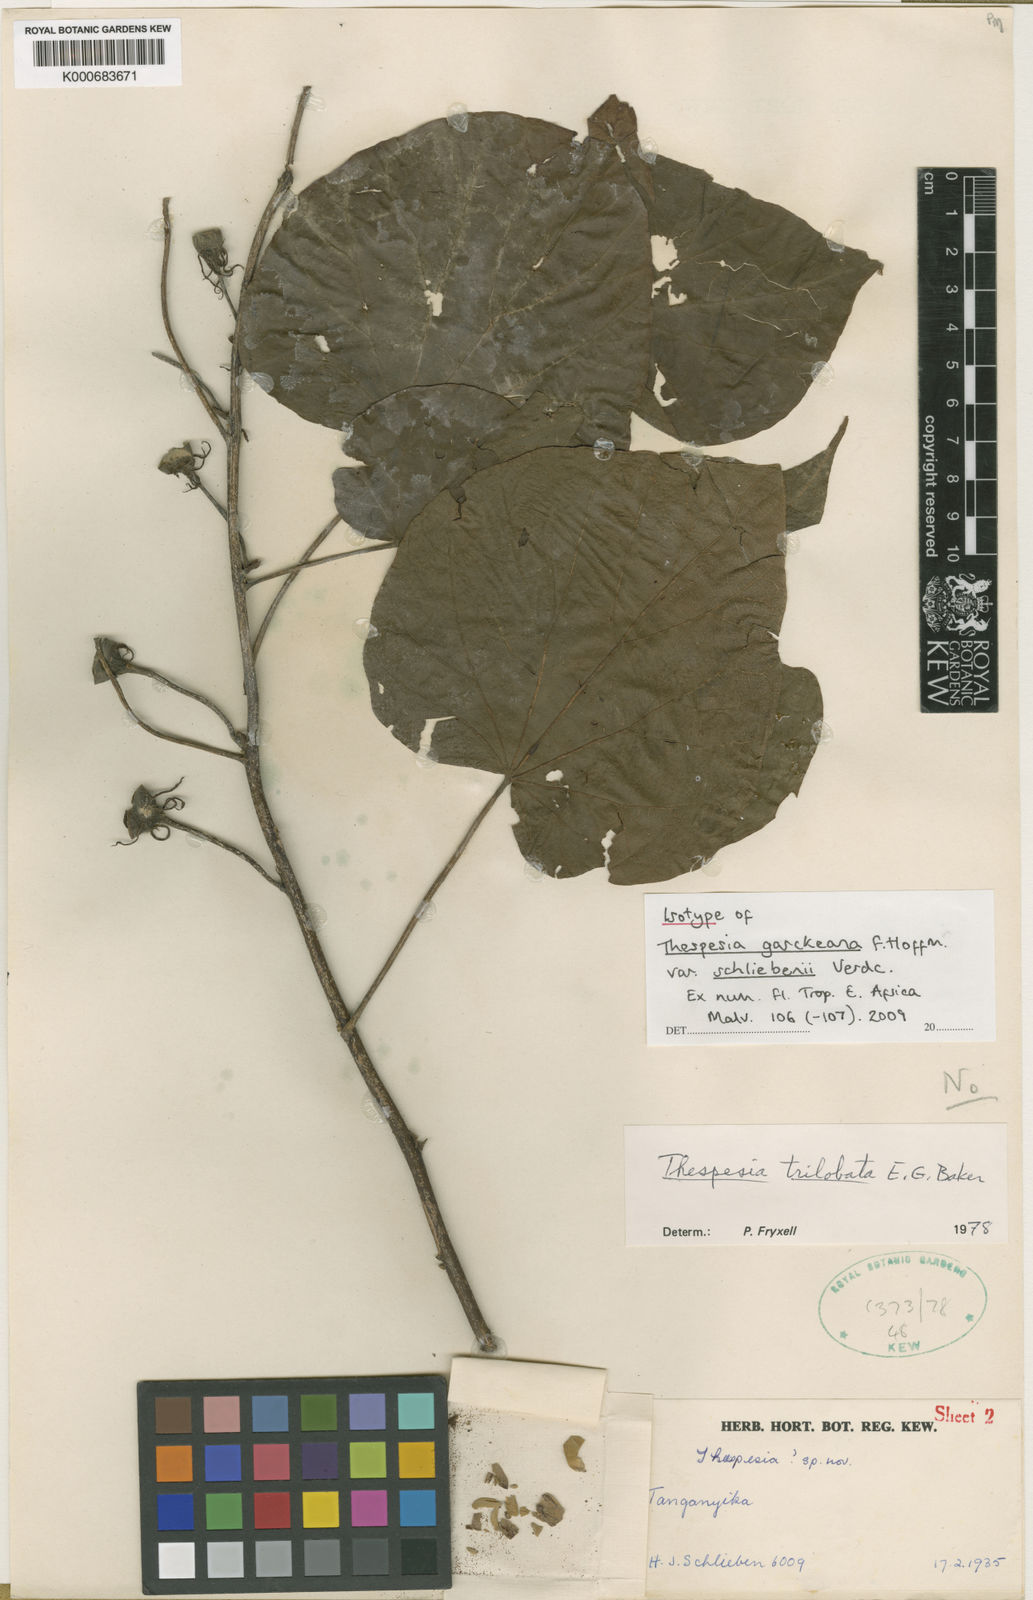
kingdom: Plantae
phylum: Tracheophyta
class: Magnoliopsida
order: Malvales
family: Malvaceae
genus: Thespesia
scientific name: Thespesia garckeana
